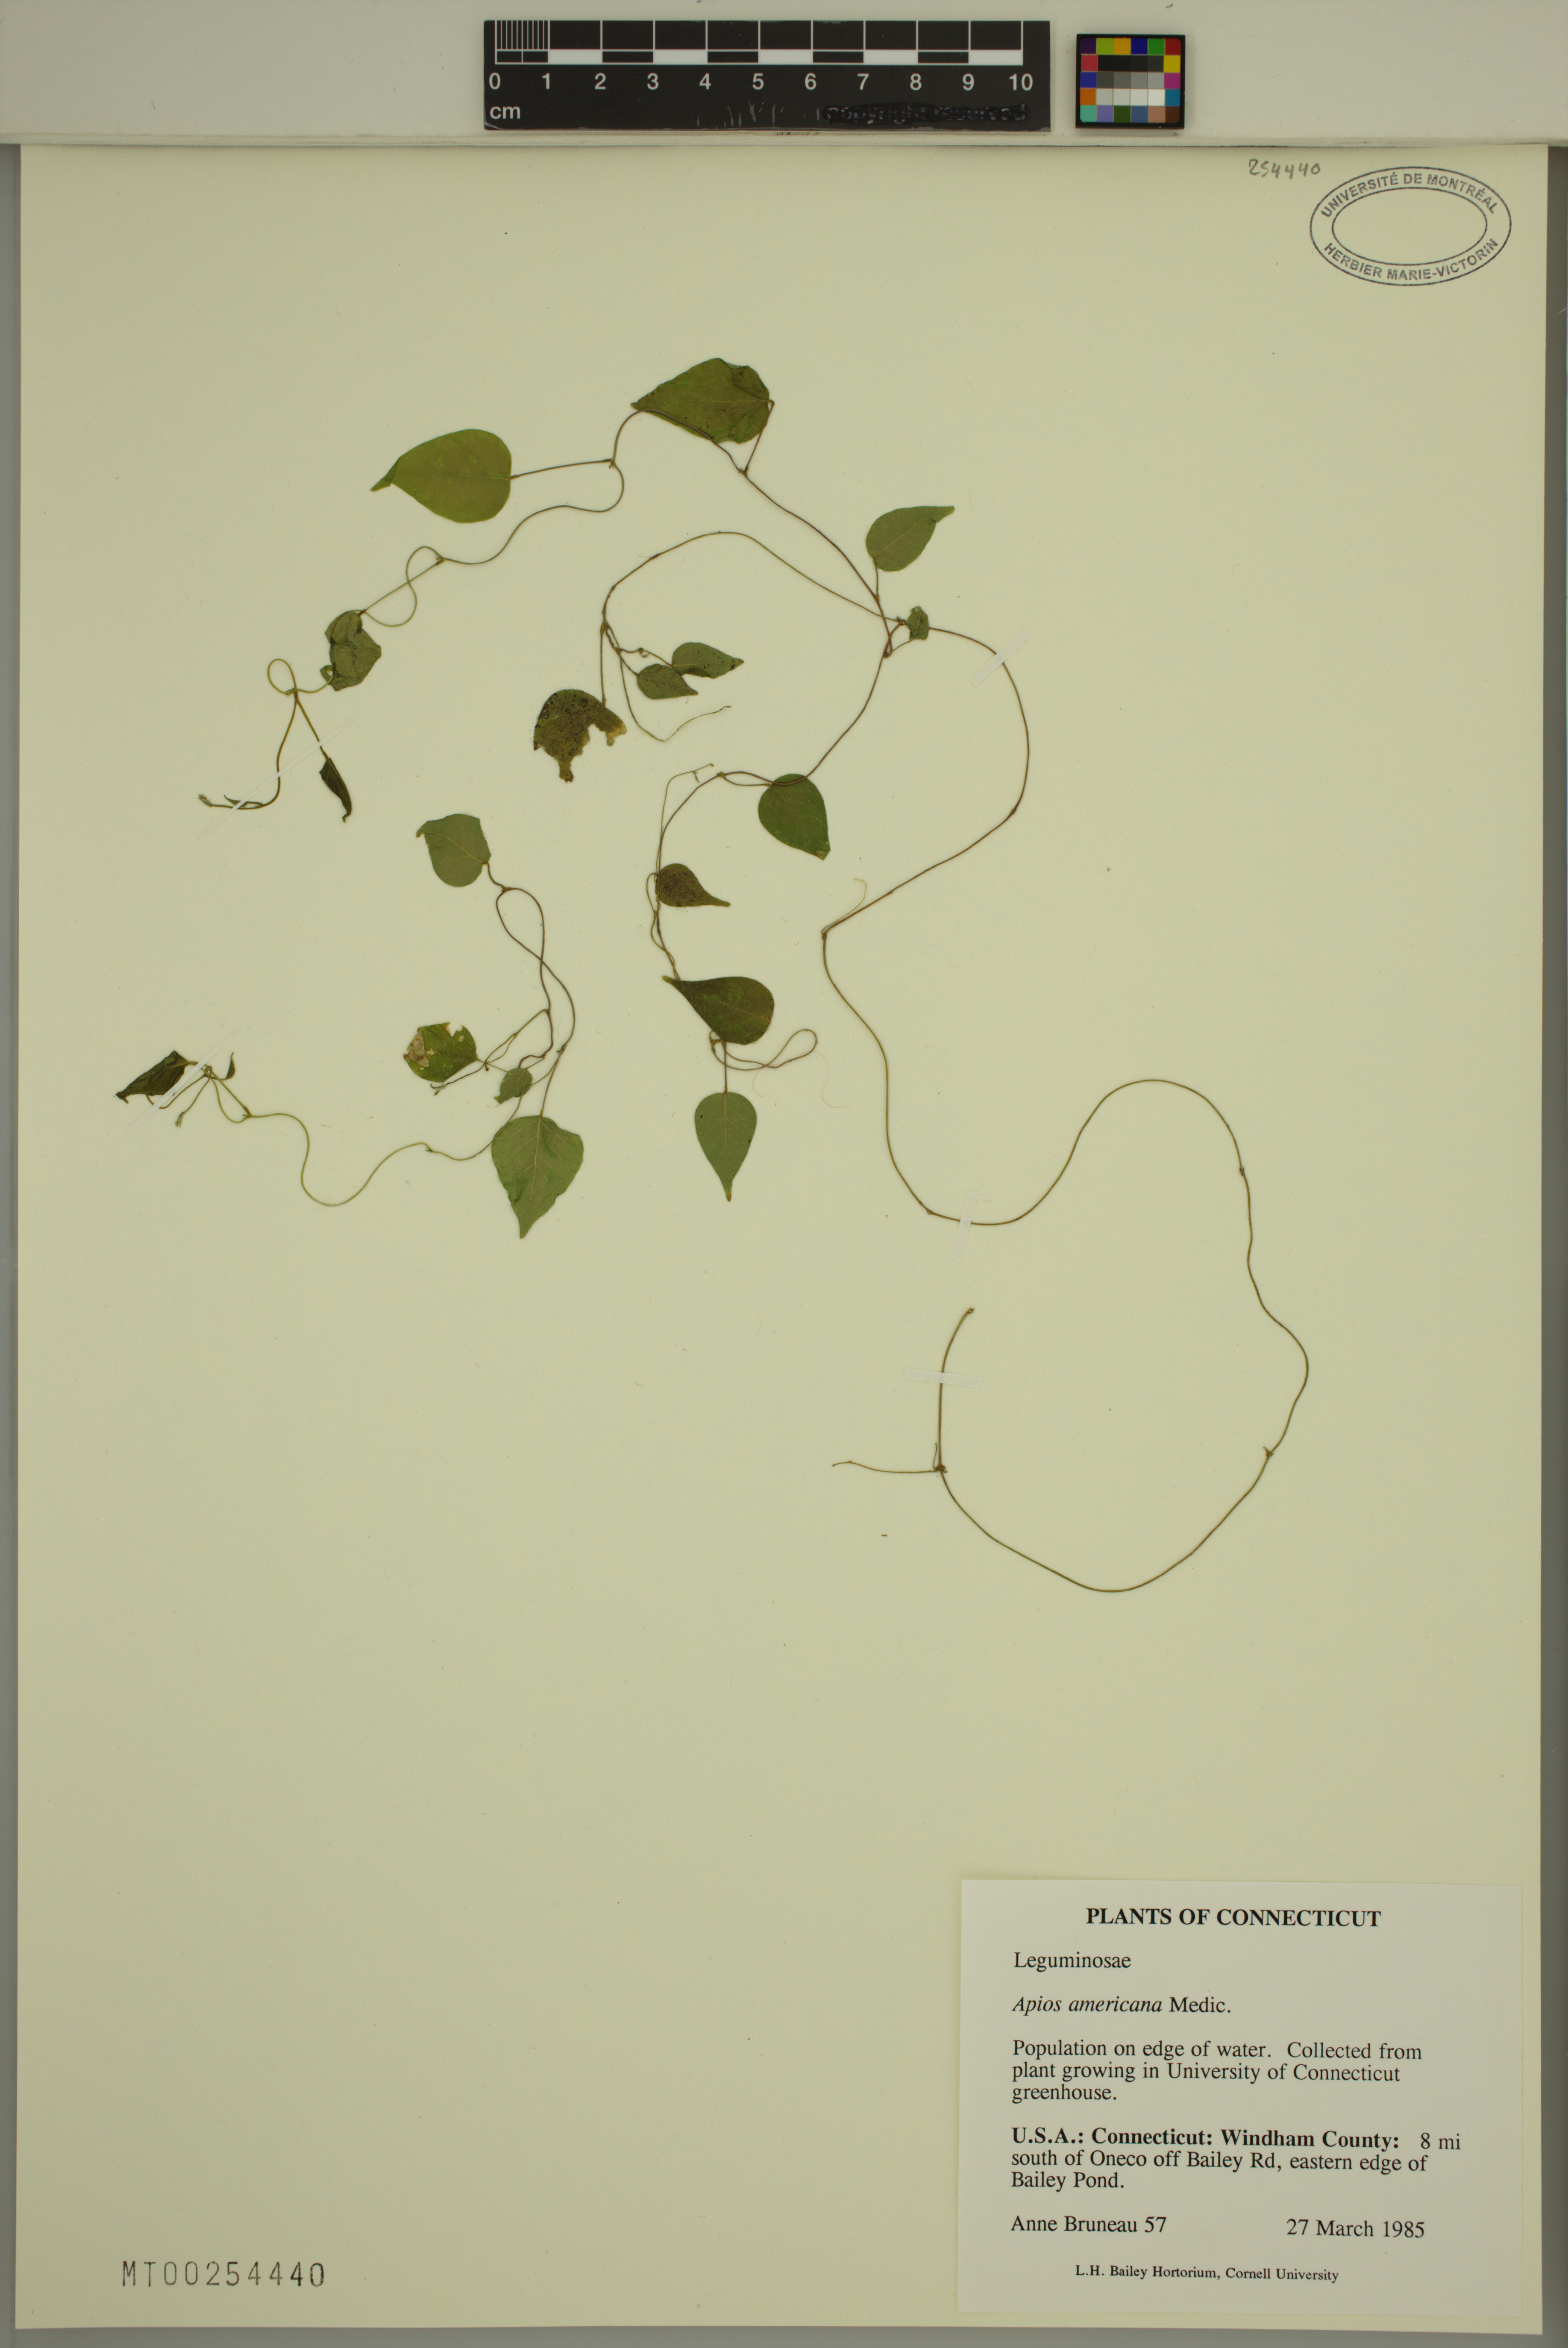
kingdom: Plantae
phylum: Tracheophyta
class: Magnoliopsida
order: Fabales
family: Fabaceae
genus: Apios
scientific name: Apios americana
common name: American potato-bean
